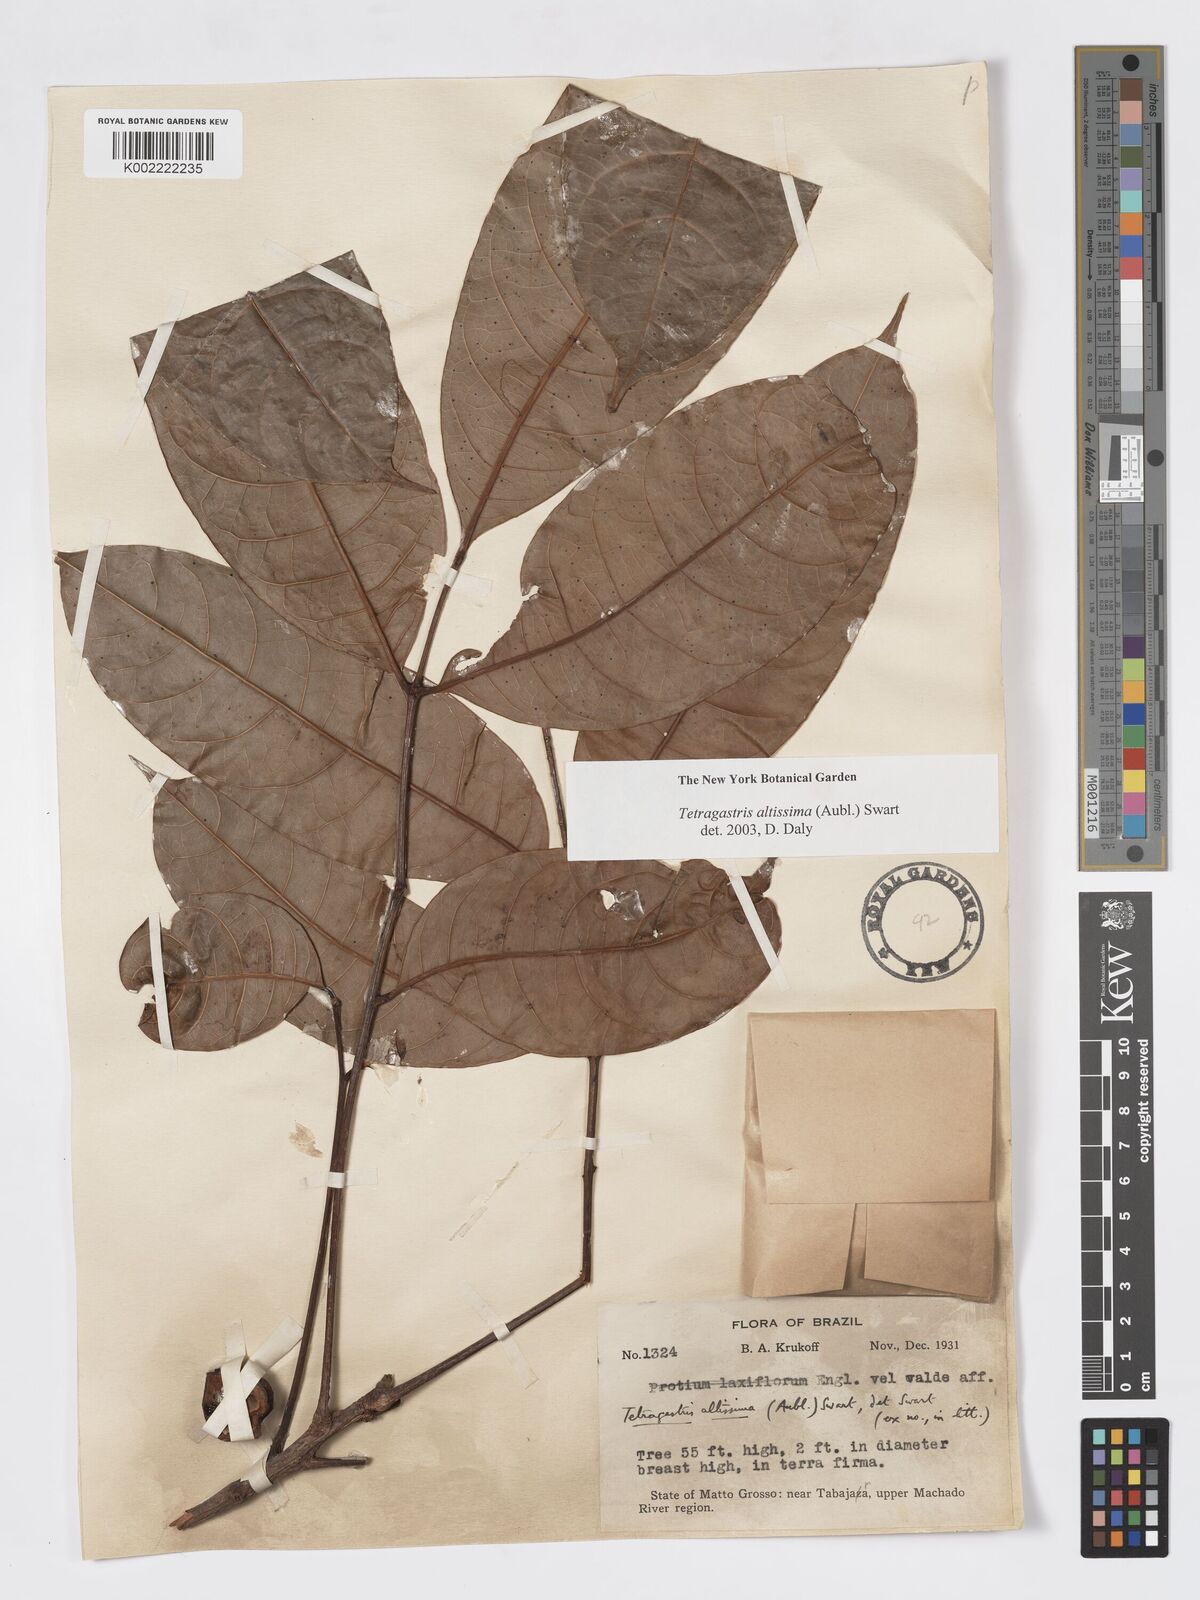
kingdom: Plantae
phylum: Tracheophyta
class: Magnoliopsida
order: Sapindales
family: Burseraceae
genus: Tetragastris
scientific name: Tetragastris altissima
